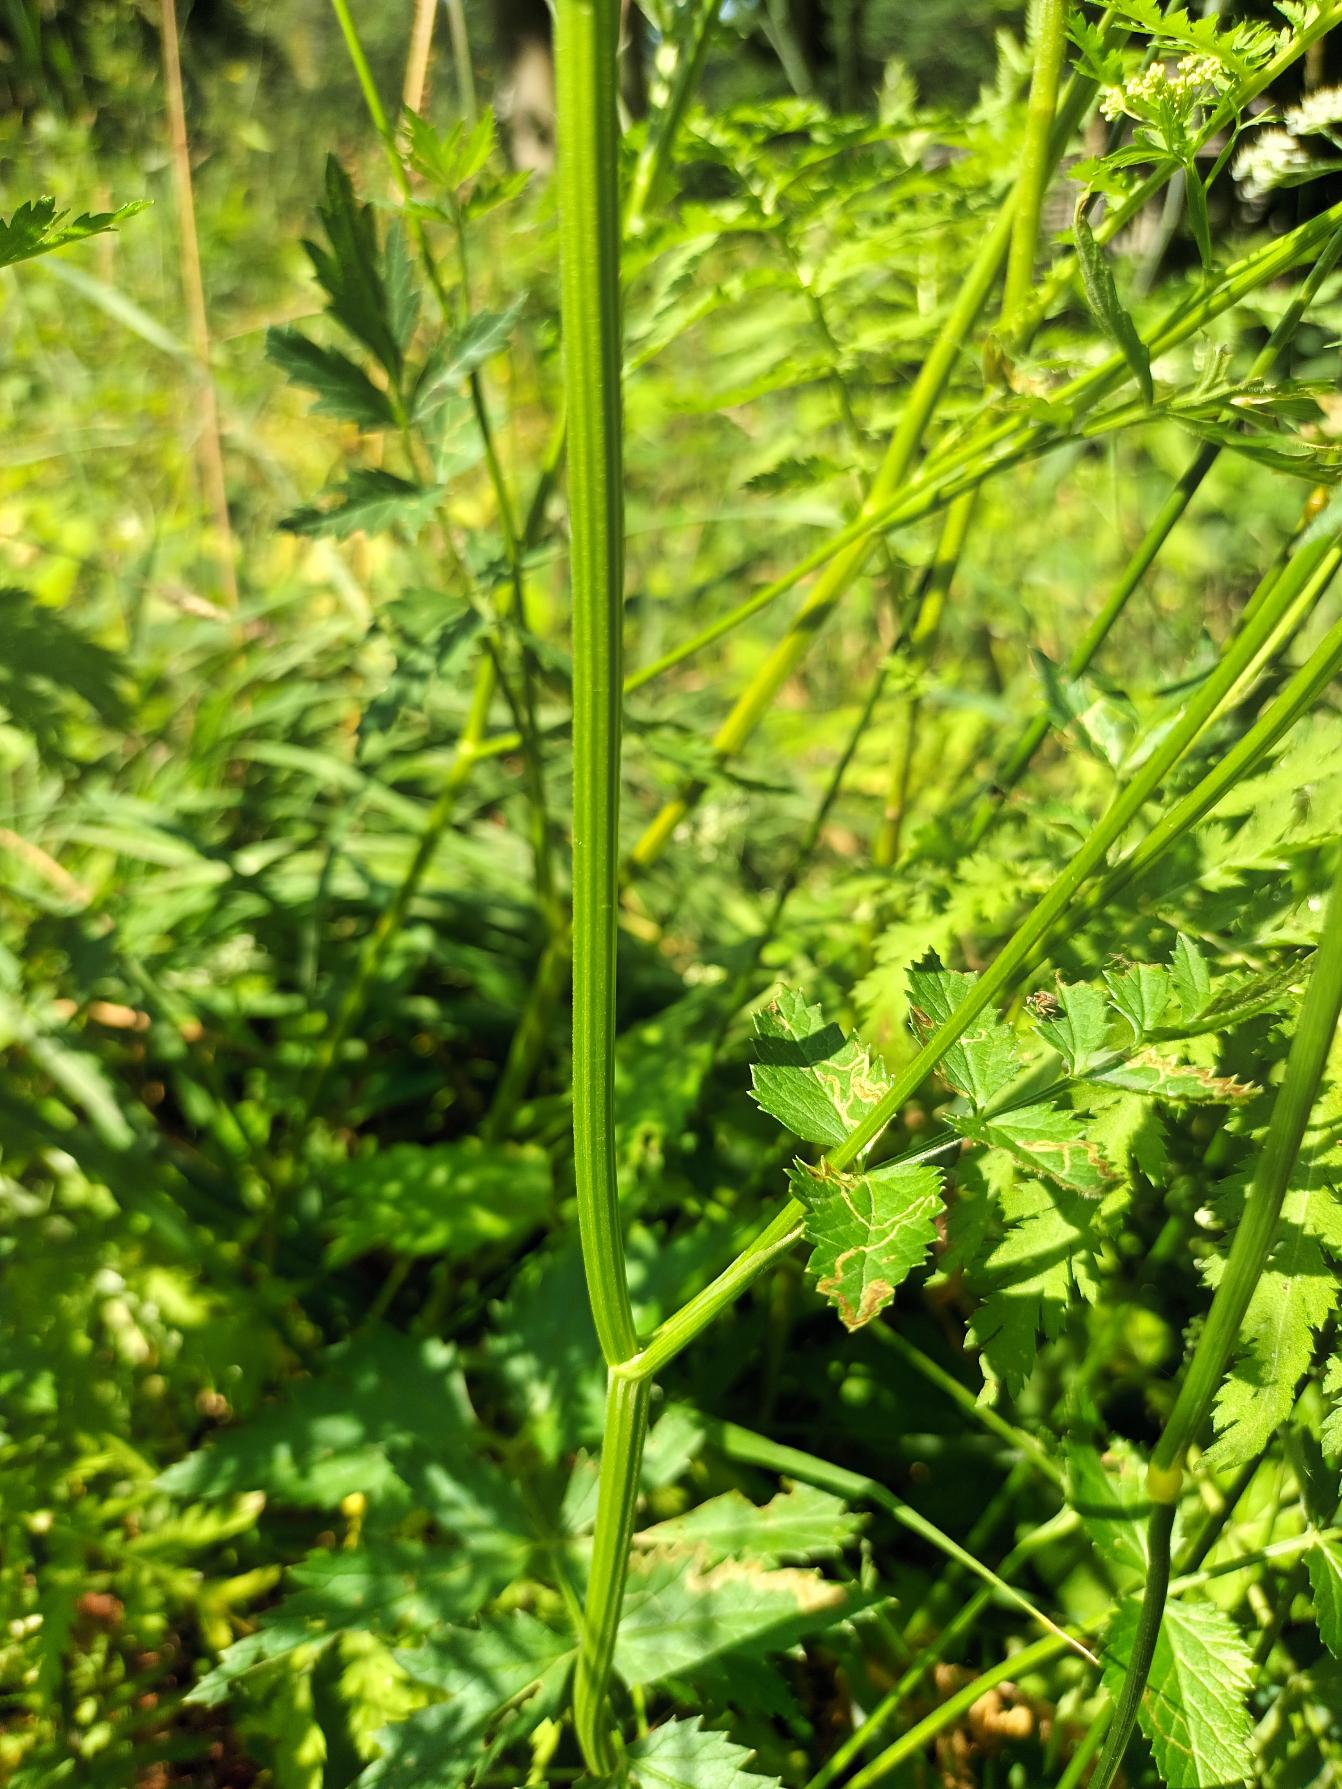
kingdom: Plantae
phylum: Tracheophyta
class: Magnoliopsida
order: Apiales
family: Apiaceae
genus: Pimpinella
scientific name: Pimpinella major
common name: Stor pimpinelle
